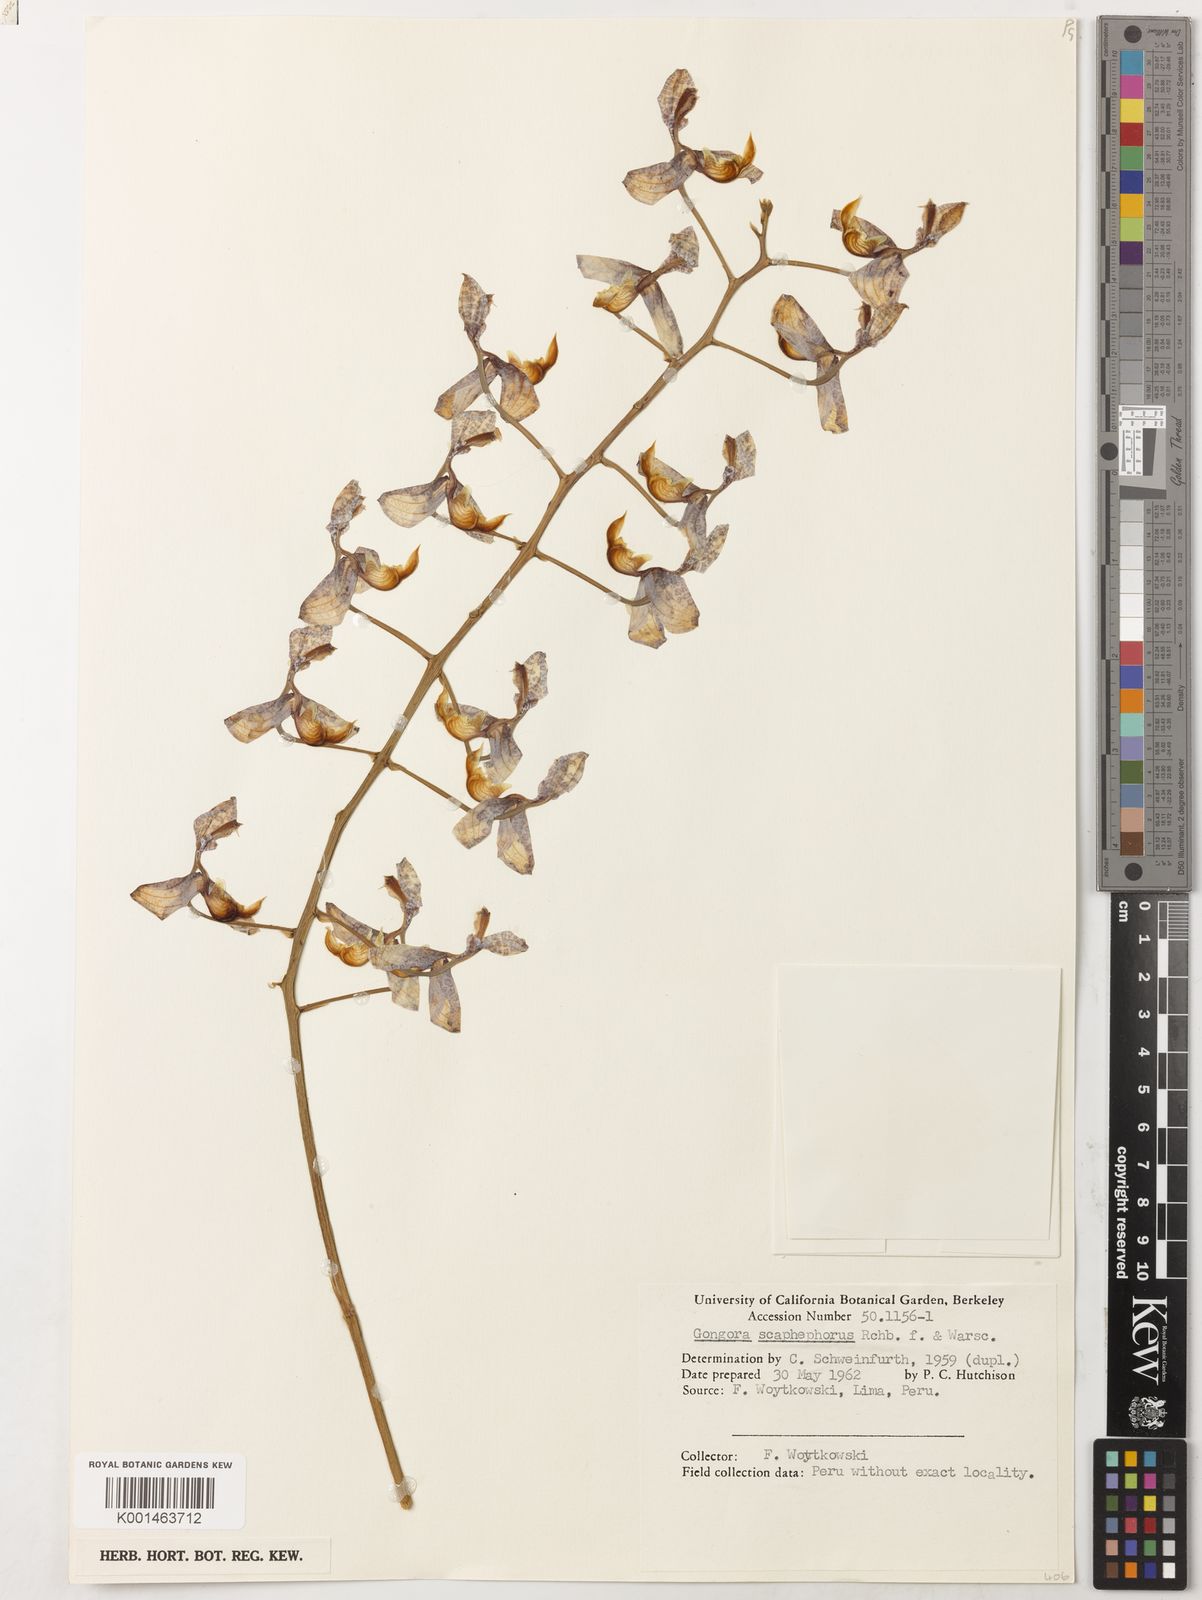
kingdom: Plantae
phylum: Tracheophyta
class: Liliopsida
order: Asparagales
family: Orchidaceae
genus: Gongora
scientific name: Gongora scaphephorus
